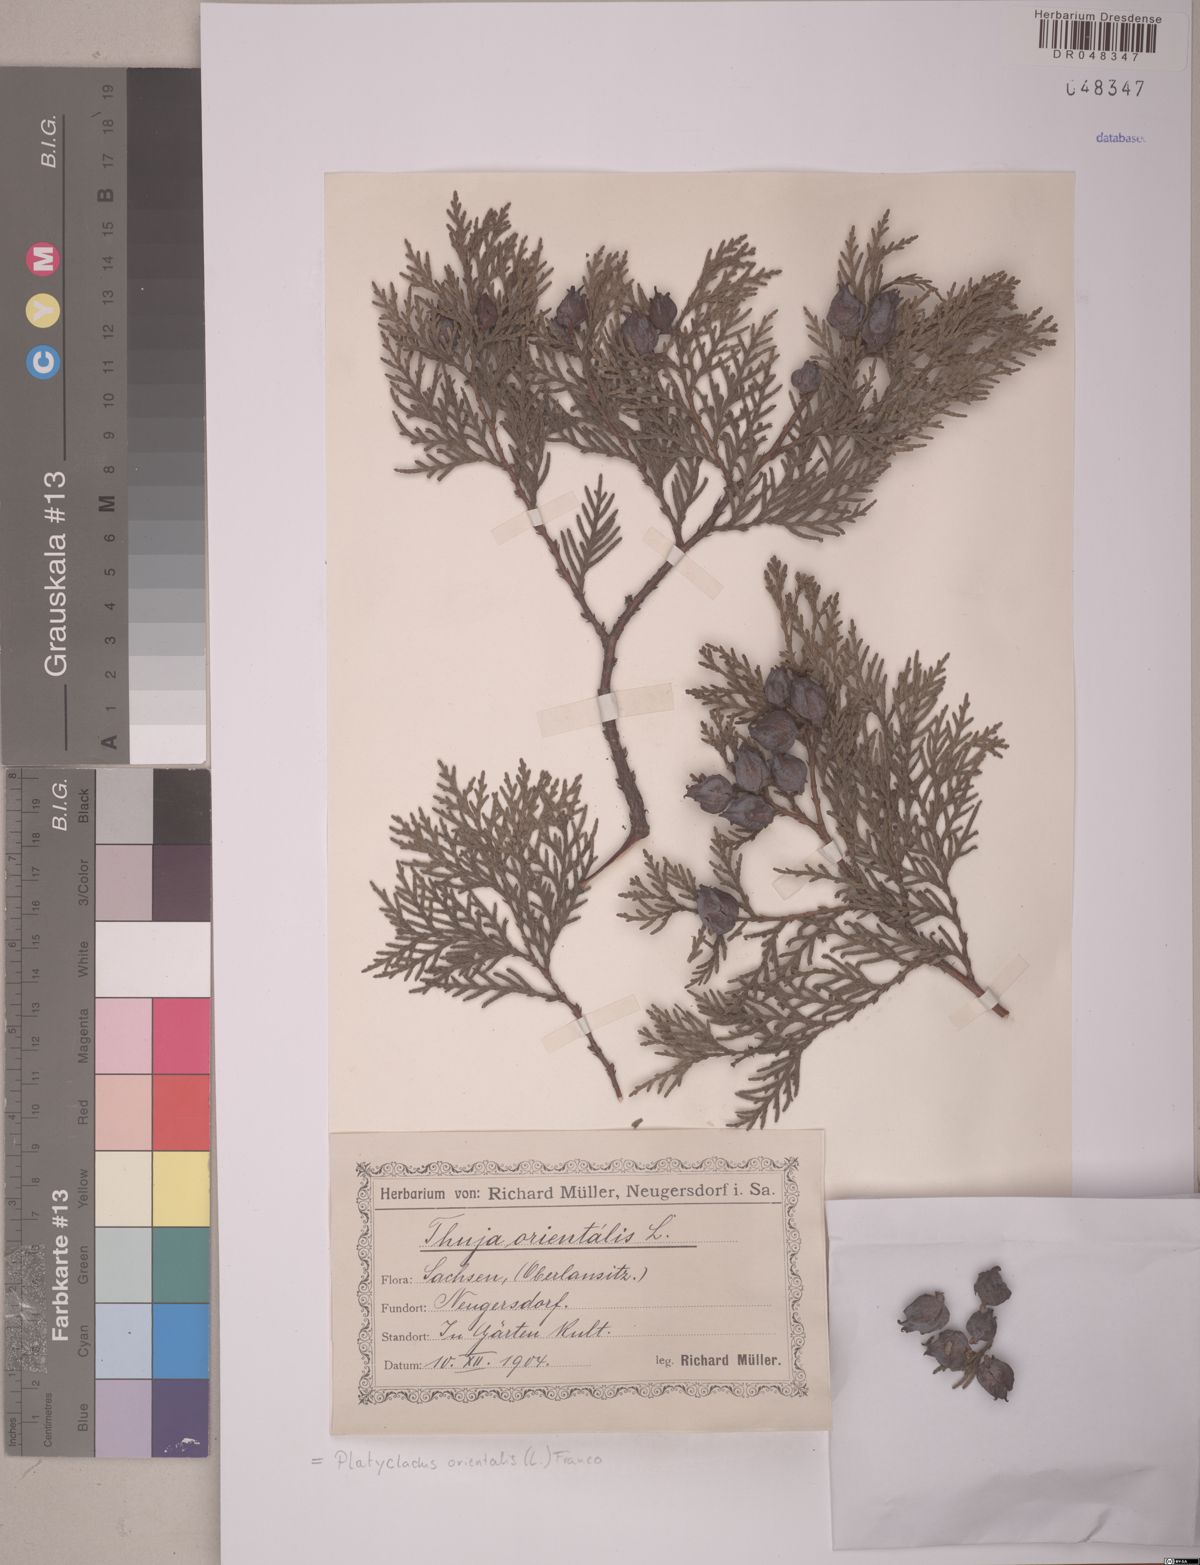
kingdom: Plantae
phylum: Tracheophyta
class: Pinopsida
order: Pinales
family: Cupressaceae
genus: Platycladus
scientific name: Platycladus orientalis
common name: Chinese thuja
